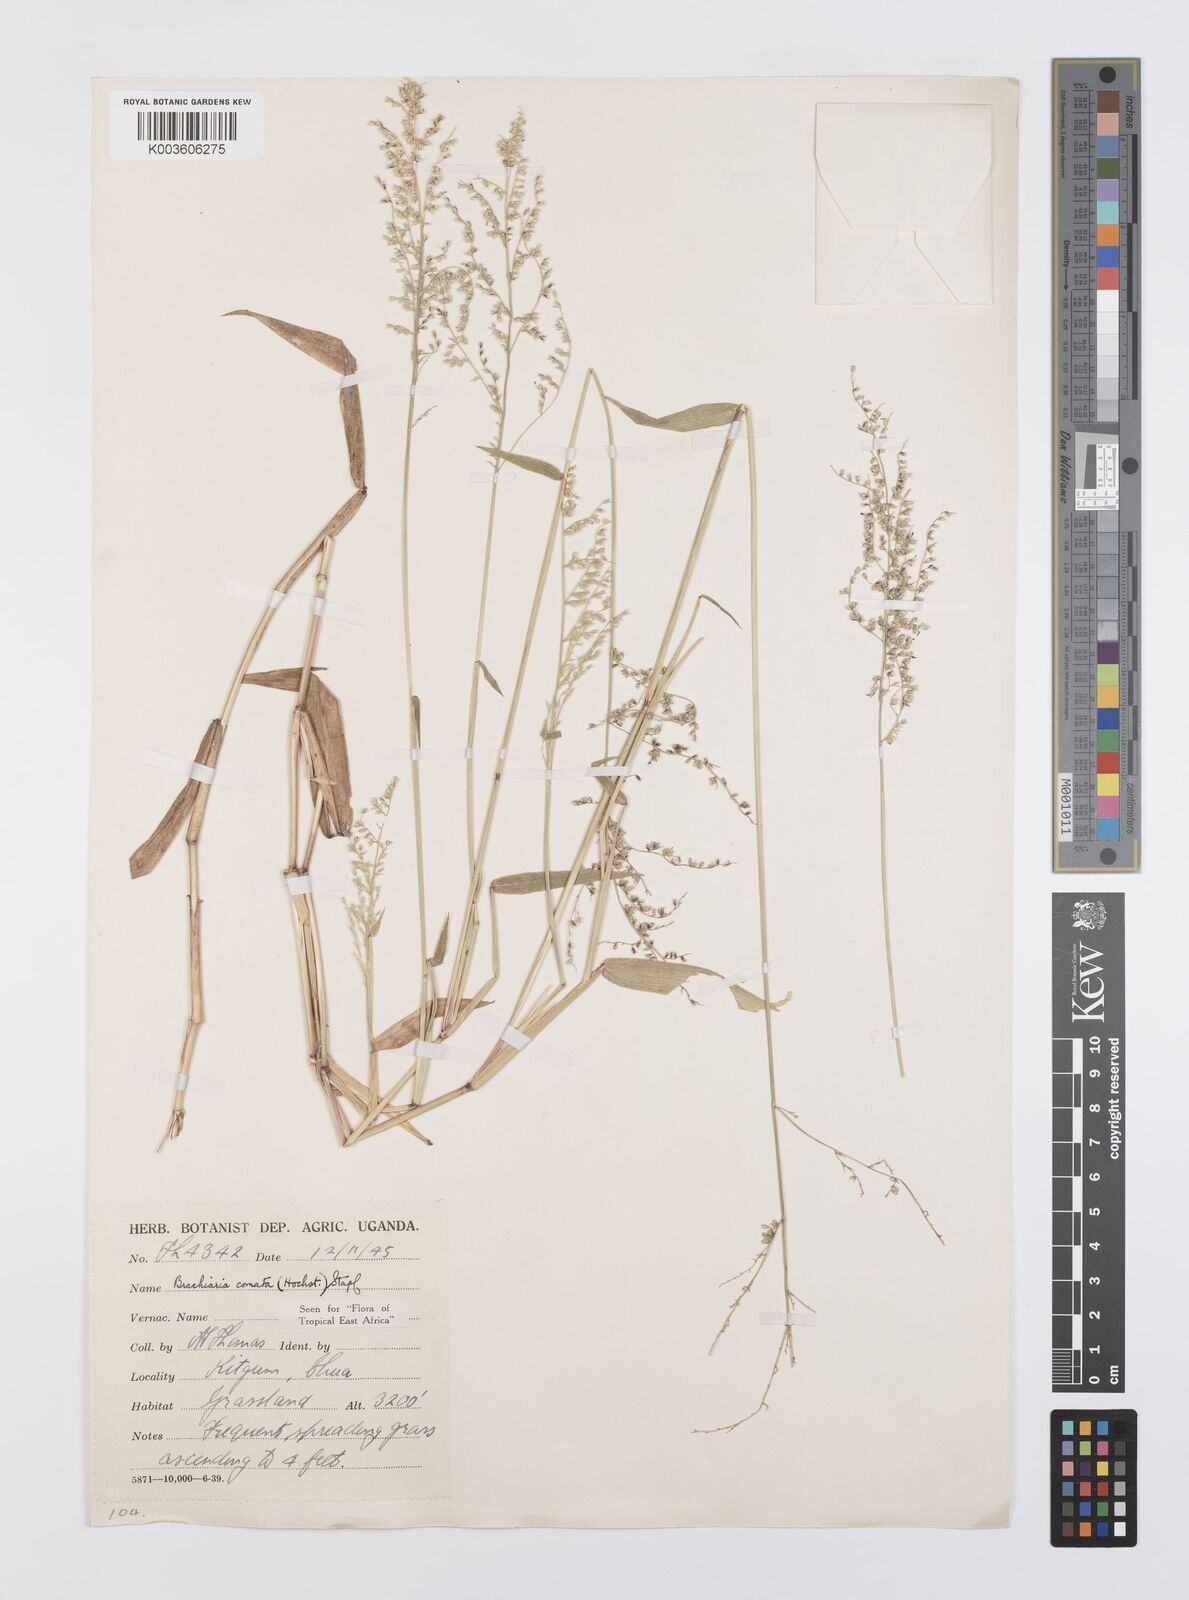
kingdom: Plantae
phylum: Tracheophyta
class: Liliopsida
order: Poales
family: Poaceae
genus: Urochloa
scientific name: Urochloa comata
